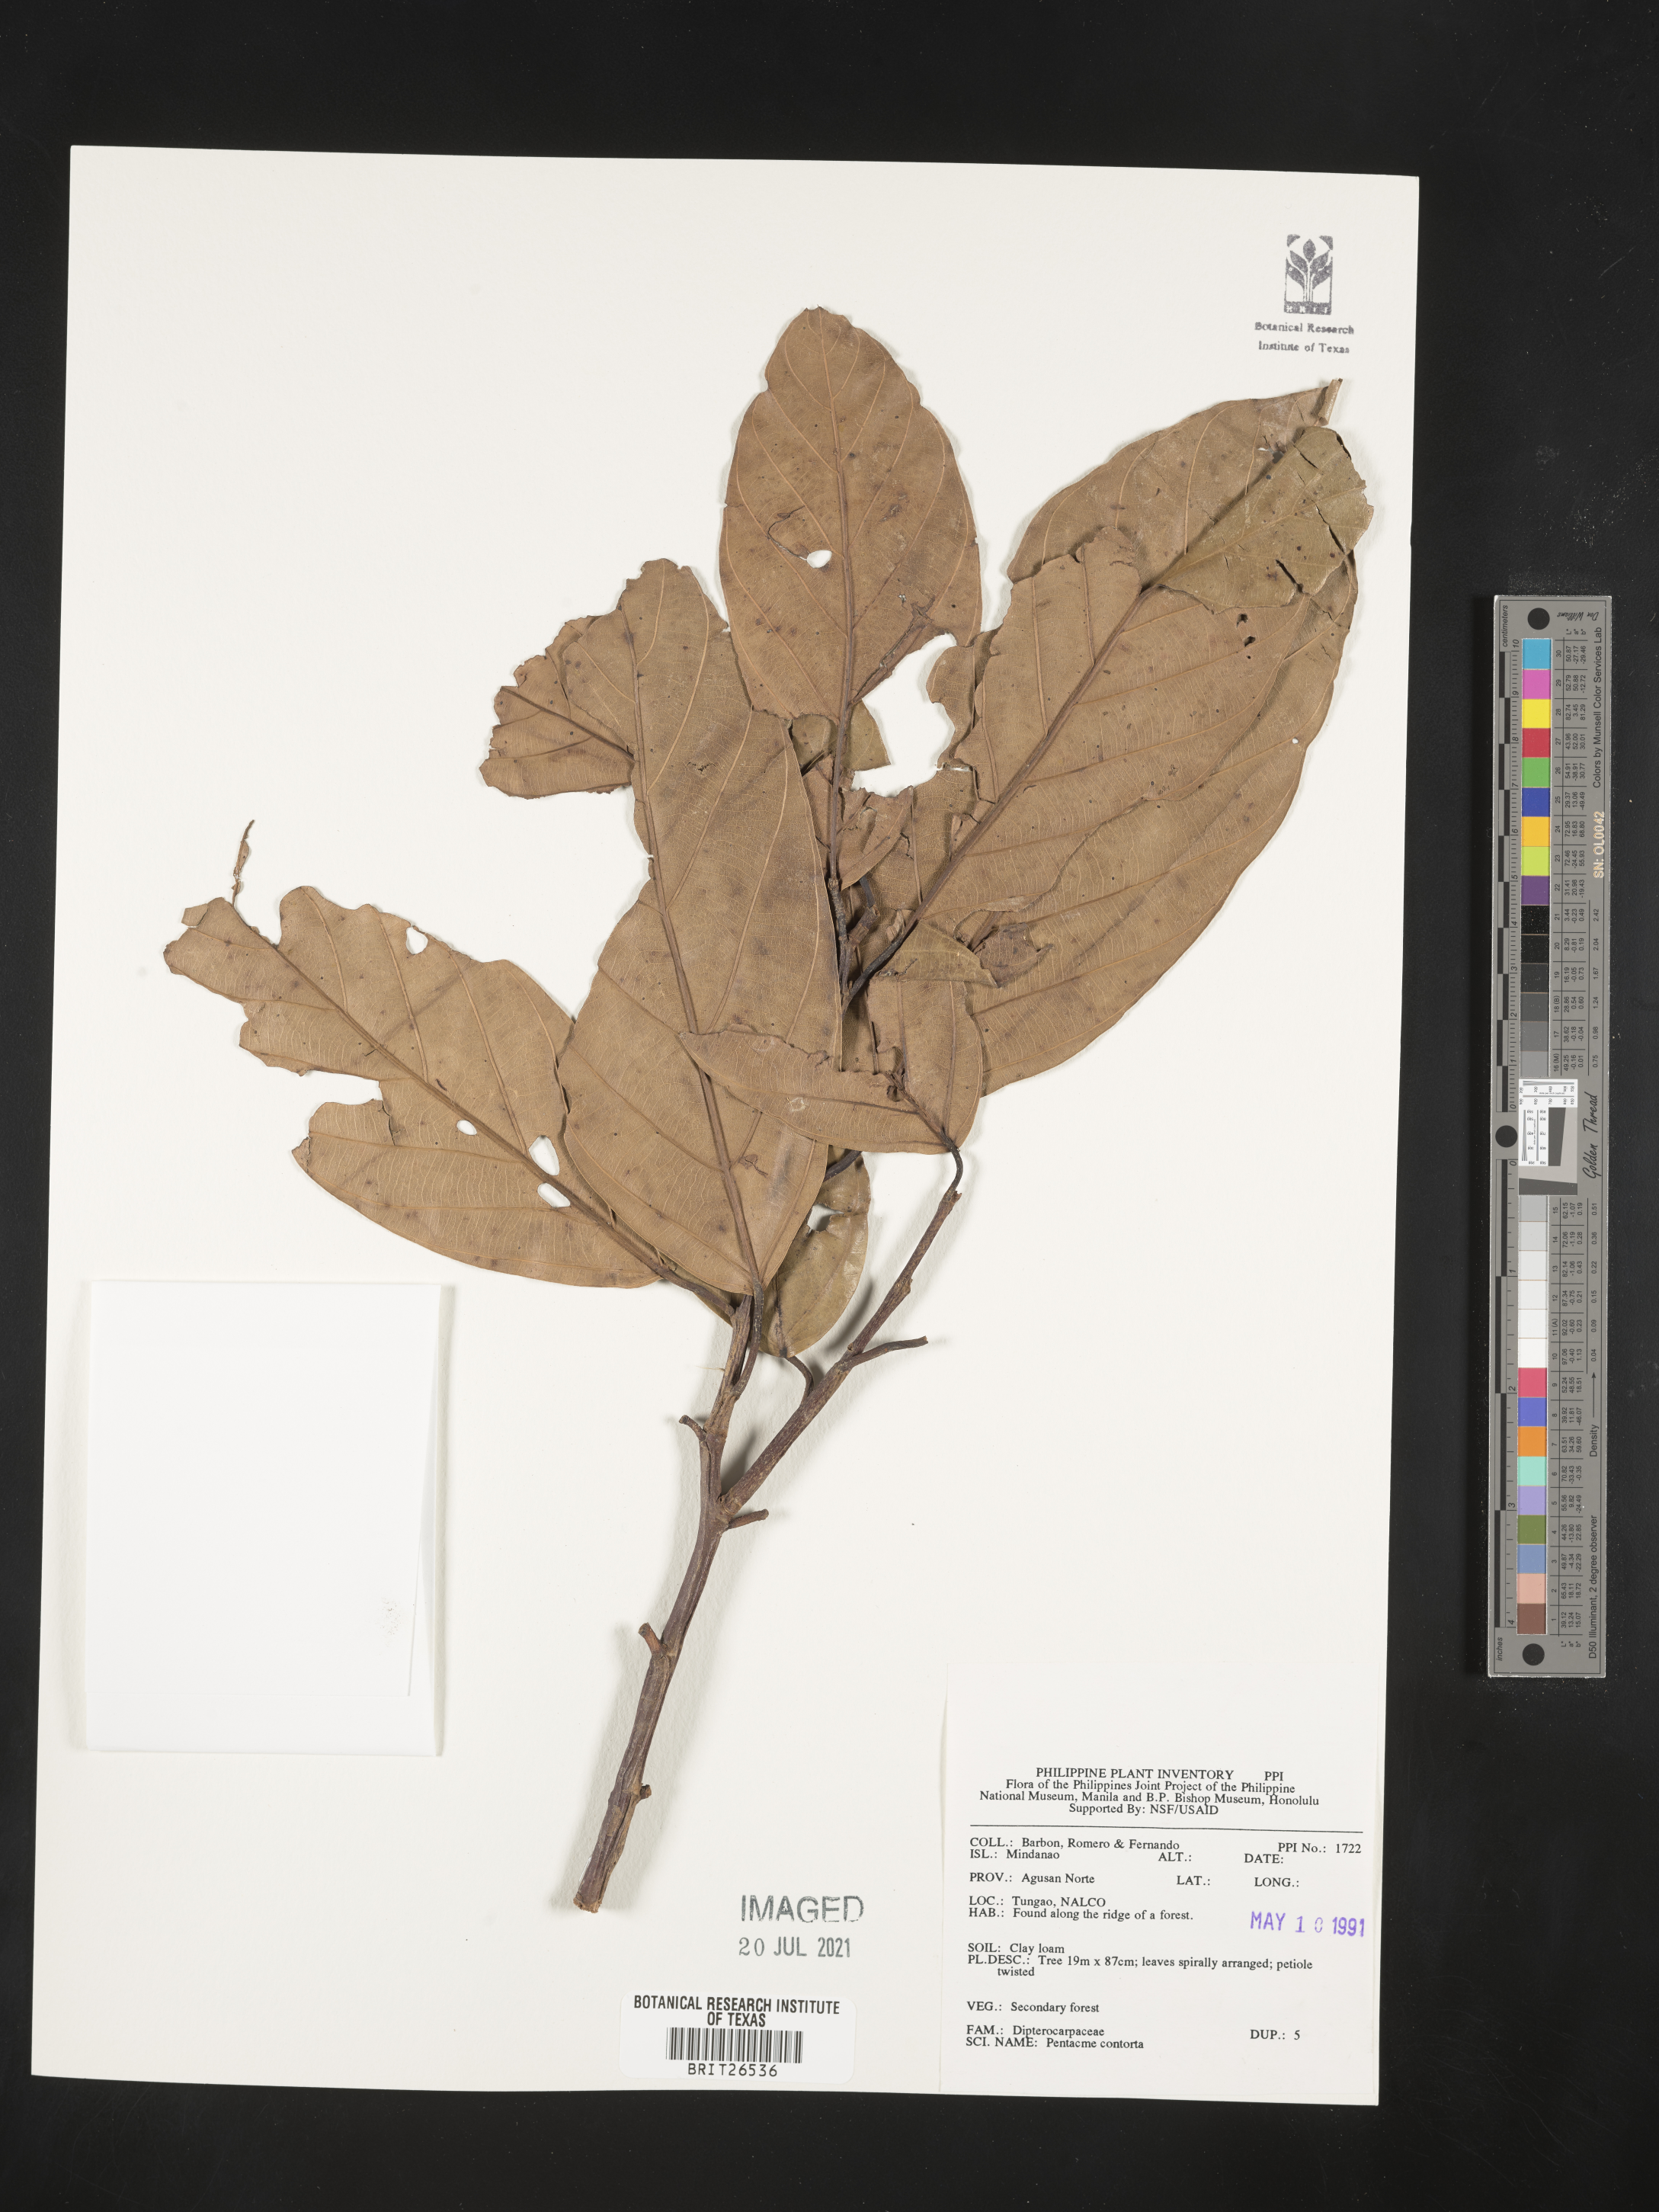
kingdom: Plantae
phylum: Tracheophyta
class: Magnoliopsida
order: Malvales
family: Dipterocarpaceae
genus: Pentacme
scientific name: Pentacme contorta
